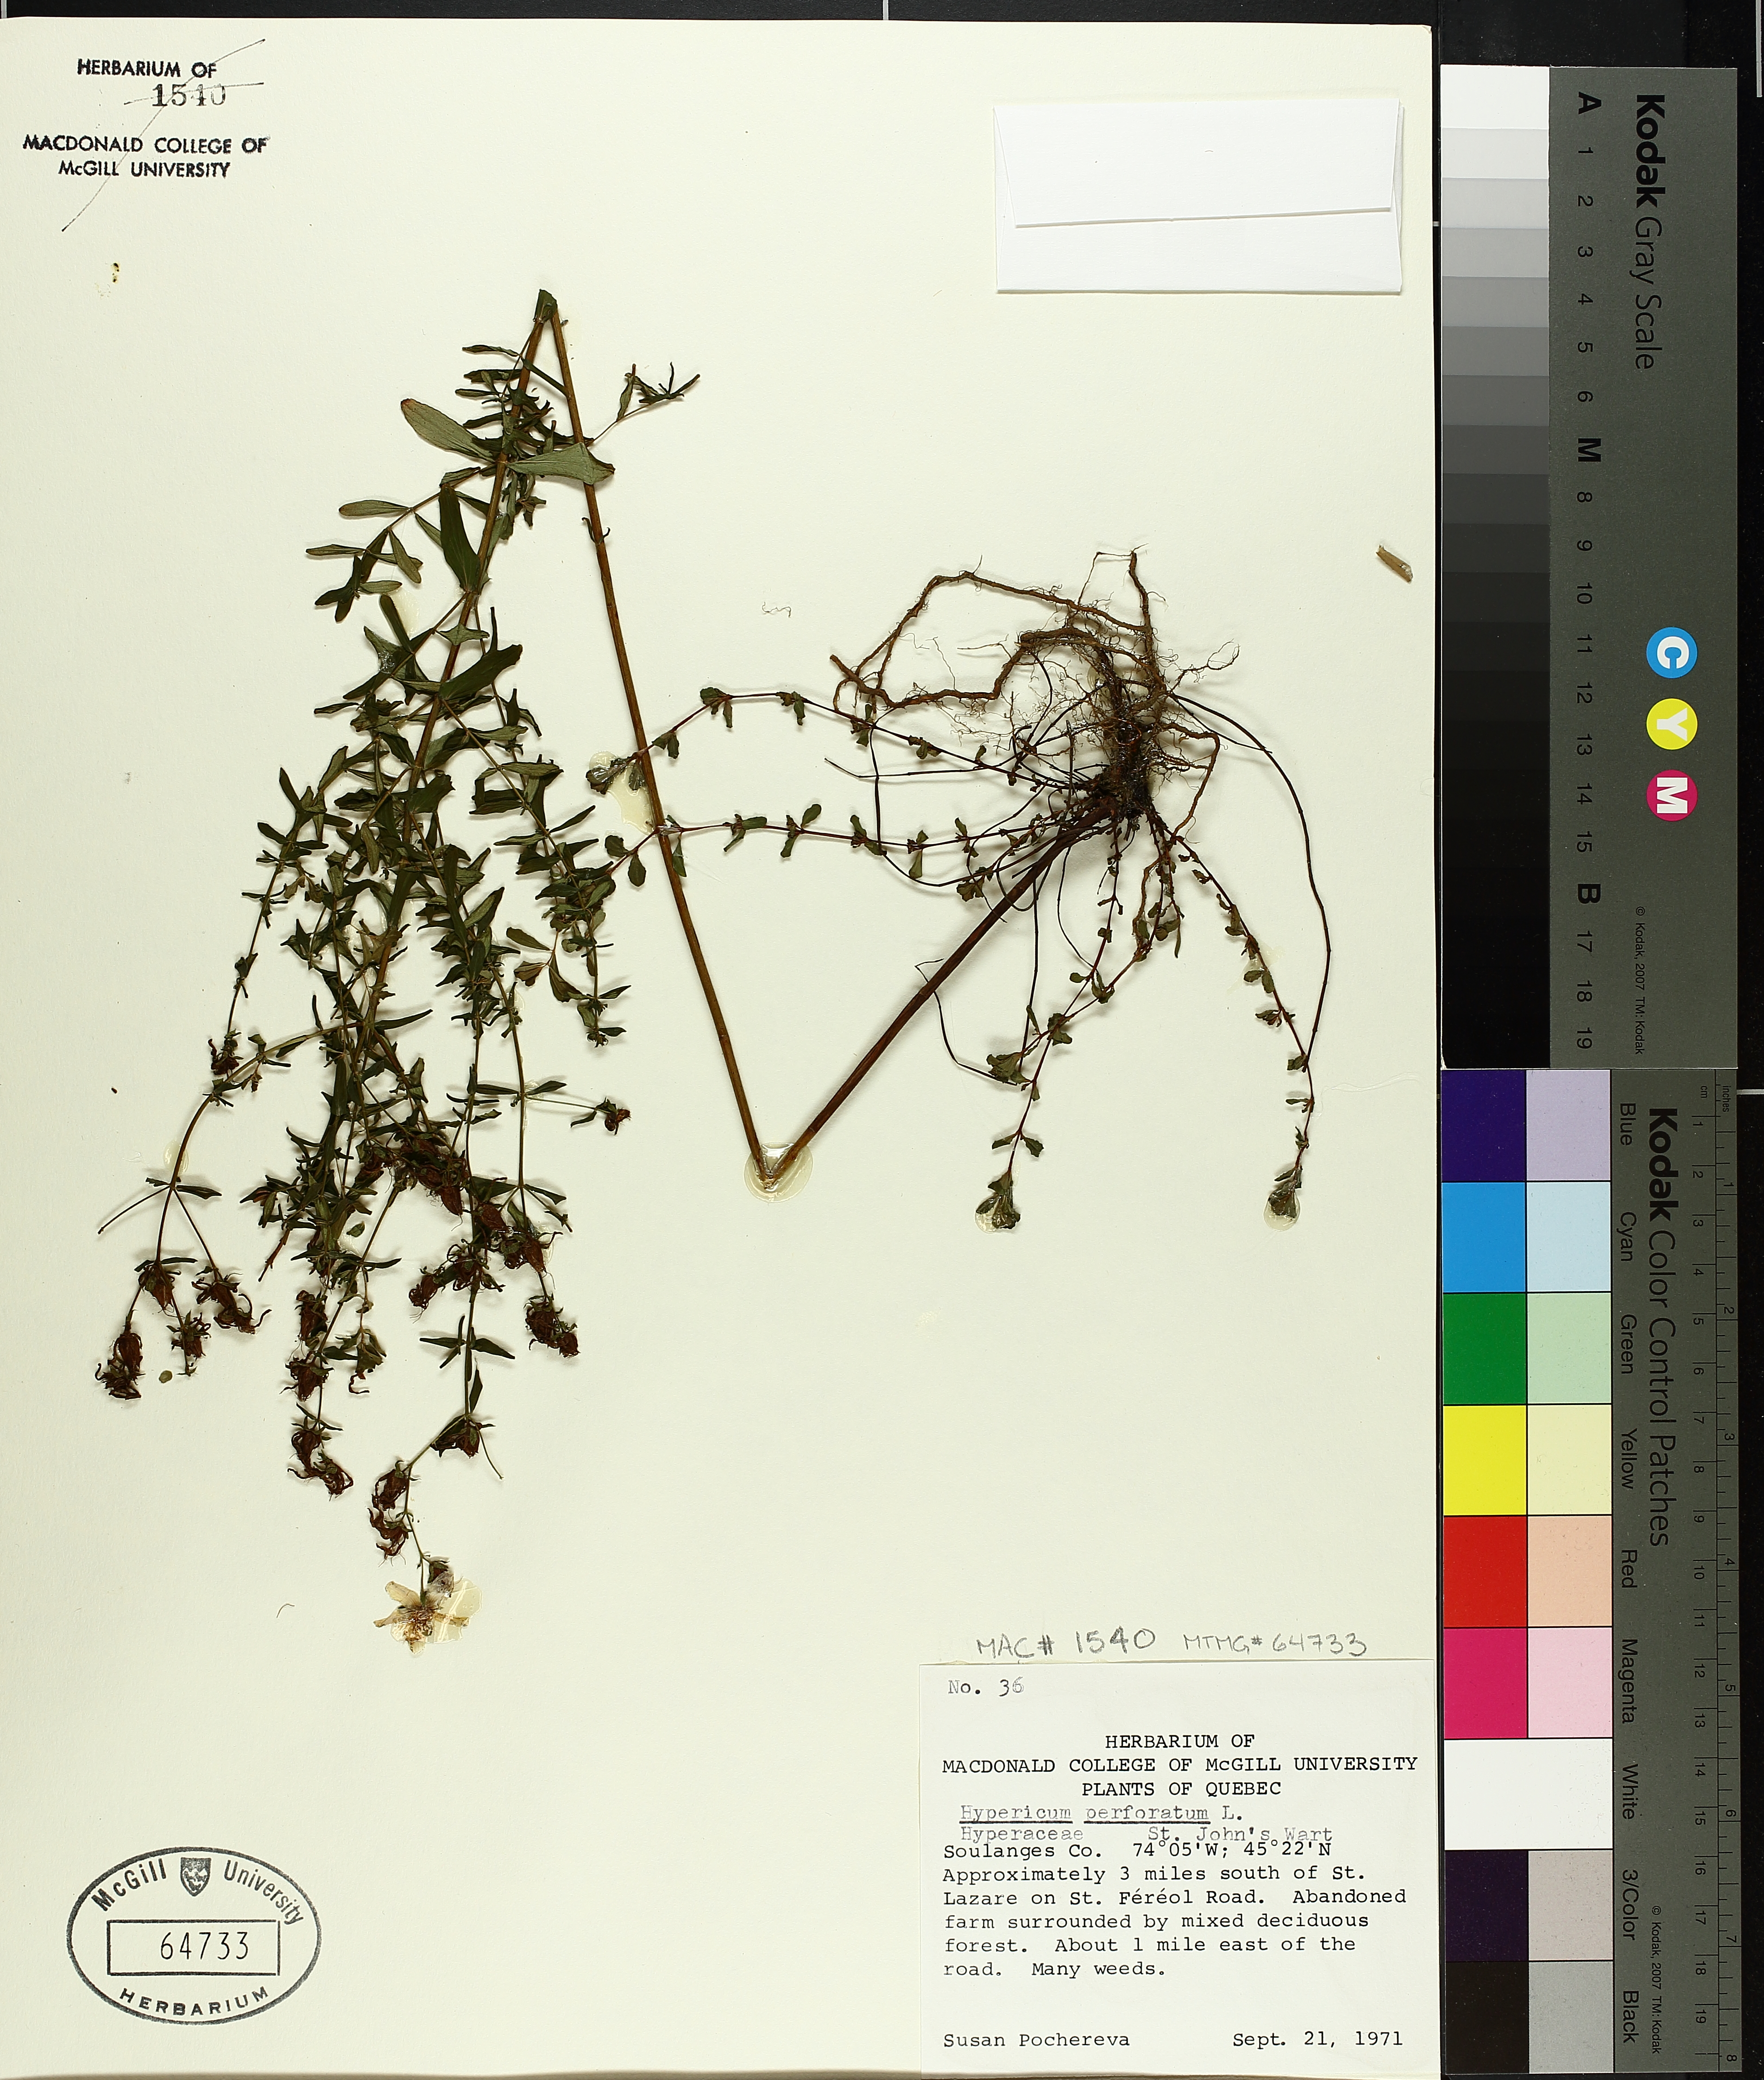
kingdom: Plantae
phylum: Tracheophyta
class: Magnoliopsida
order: Malpighiales
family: Hypericaceae
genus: Hypericum
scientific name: Hypericum perforatum
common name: Common st. johnswort
